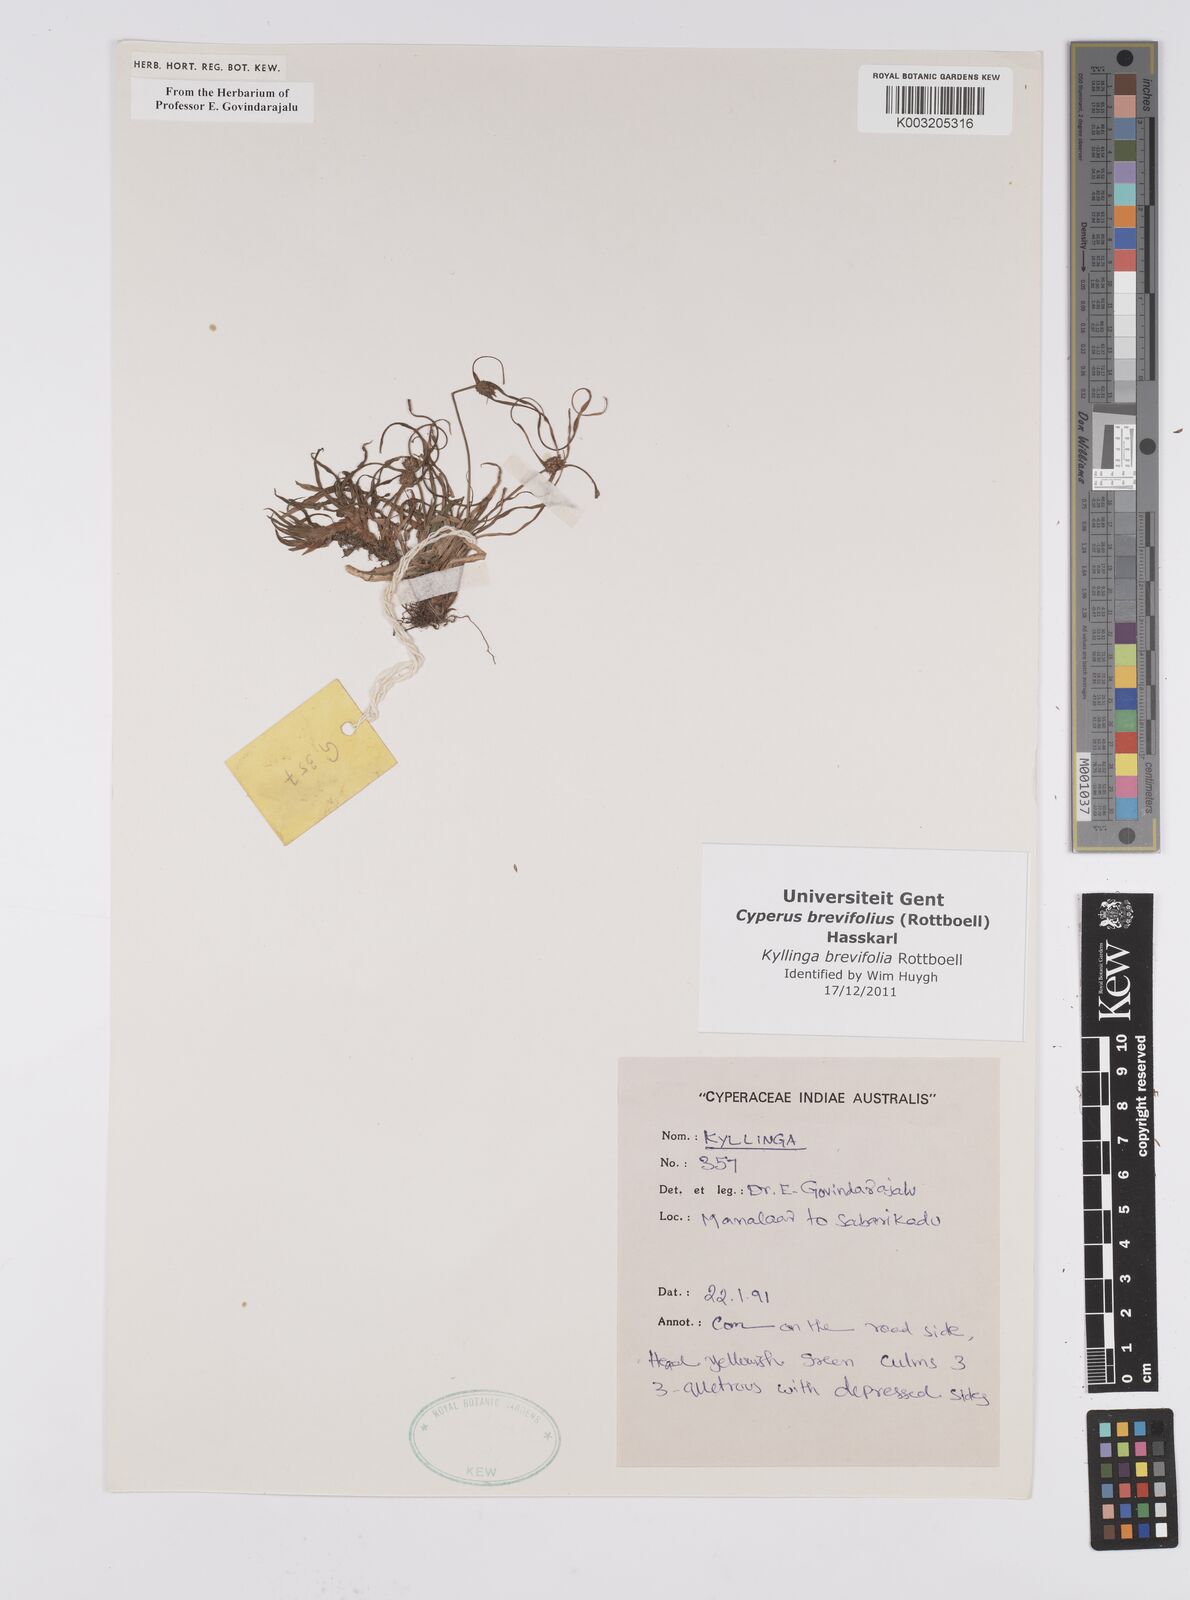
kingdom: Plantae
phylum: Tracheophyta
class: Liliopsida
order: Poales
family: Cyperaceae
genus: Cyperus
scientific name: Cyperus brevifolius
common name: Globe kyllinga
